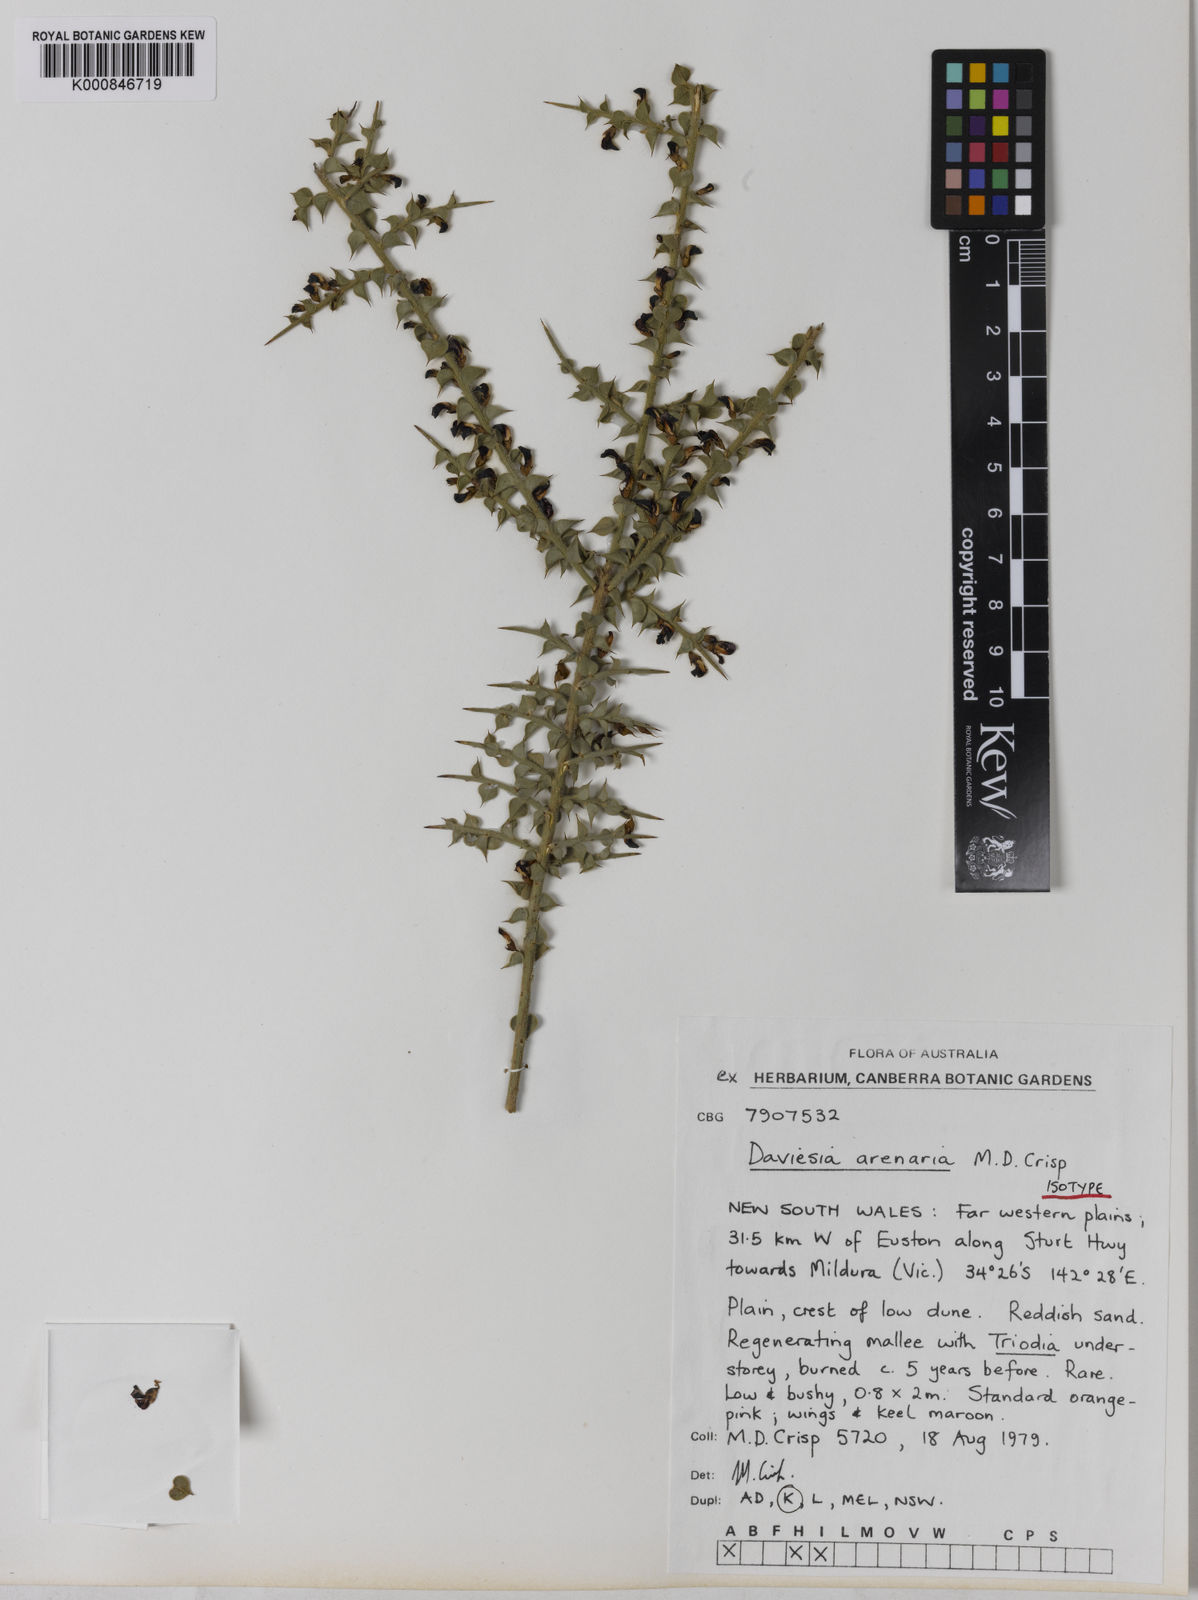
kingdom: Plantae
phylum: Tracheophyta
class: Magnoliopsida
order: Fabales
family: Fabaceae
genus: Daviesia
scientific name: Daviesia arenaria
